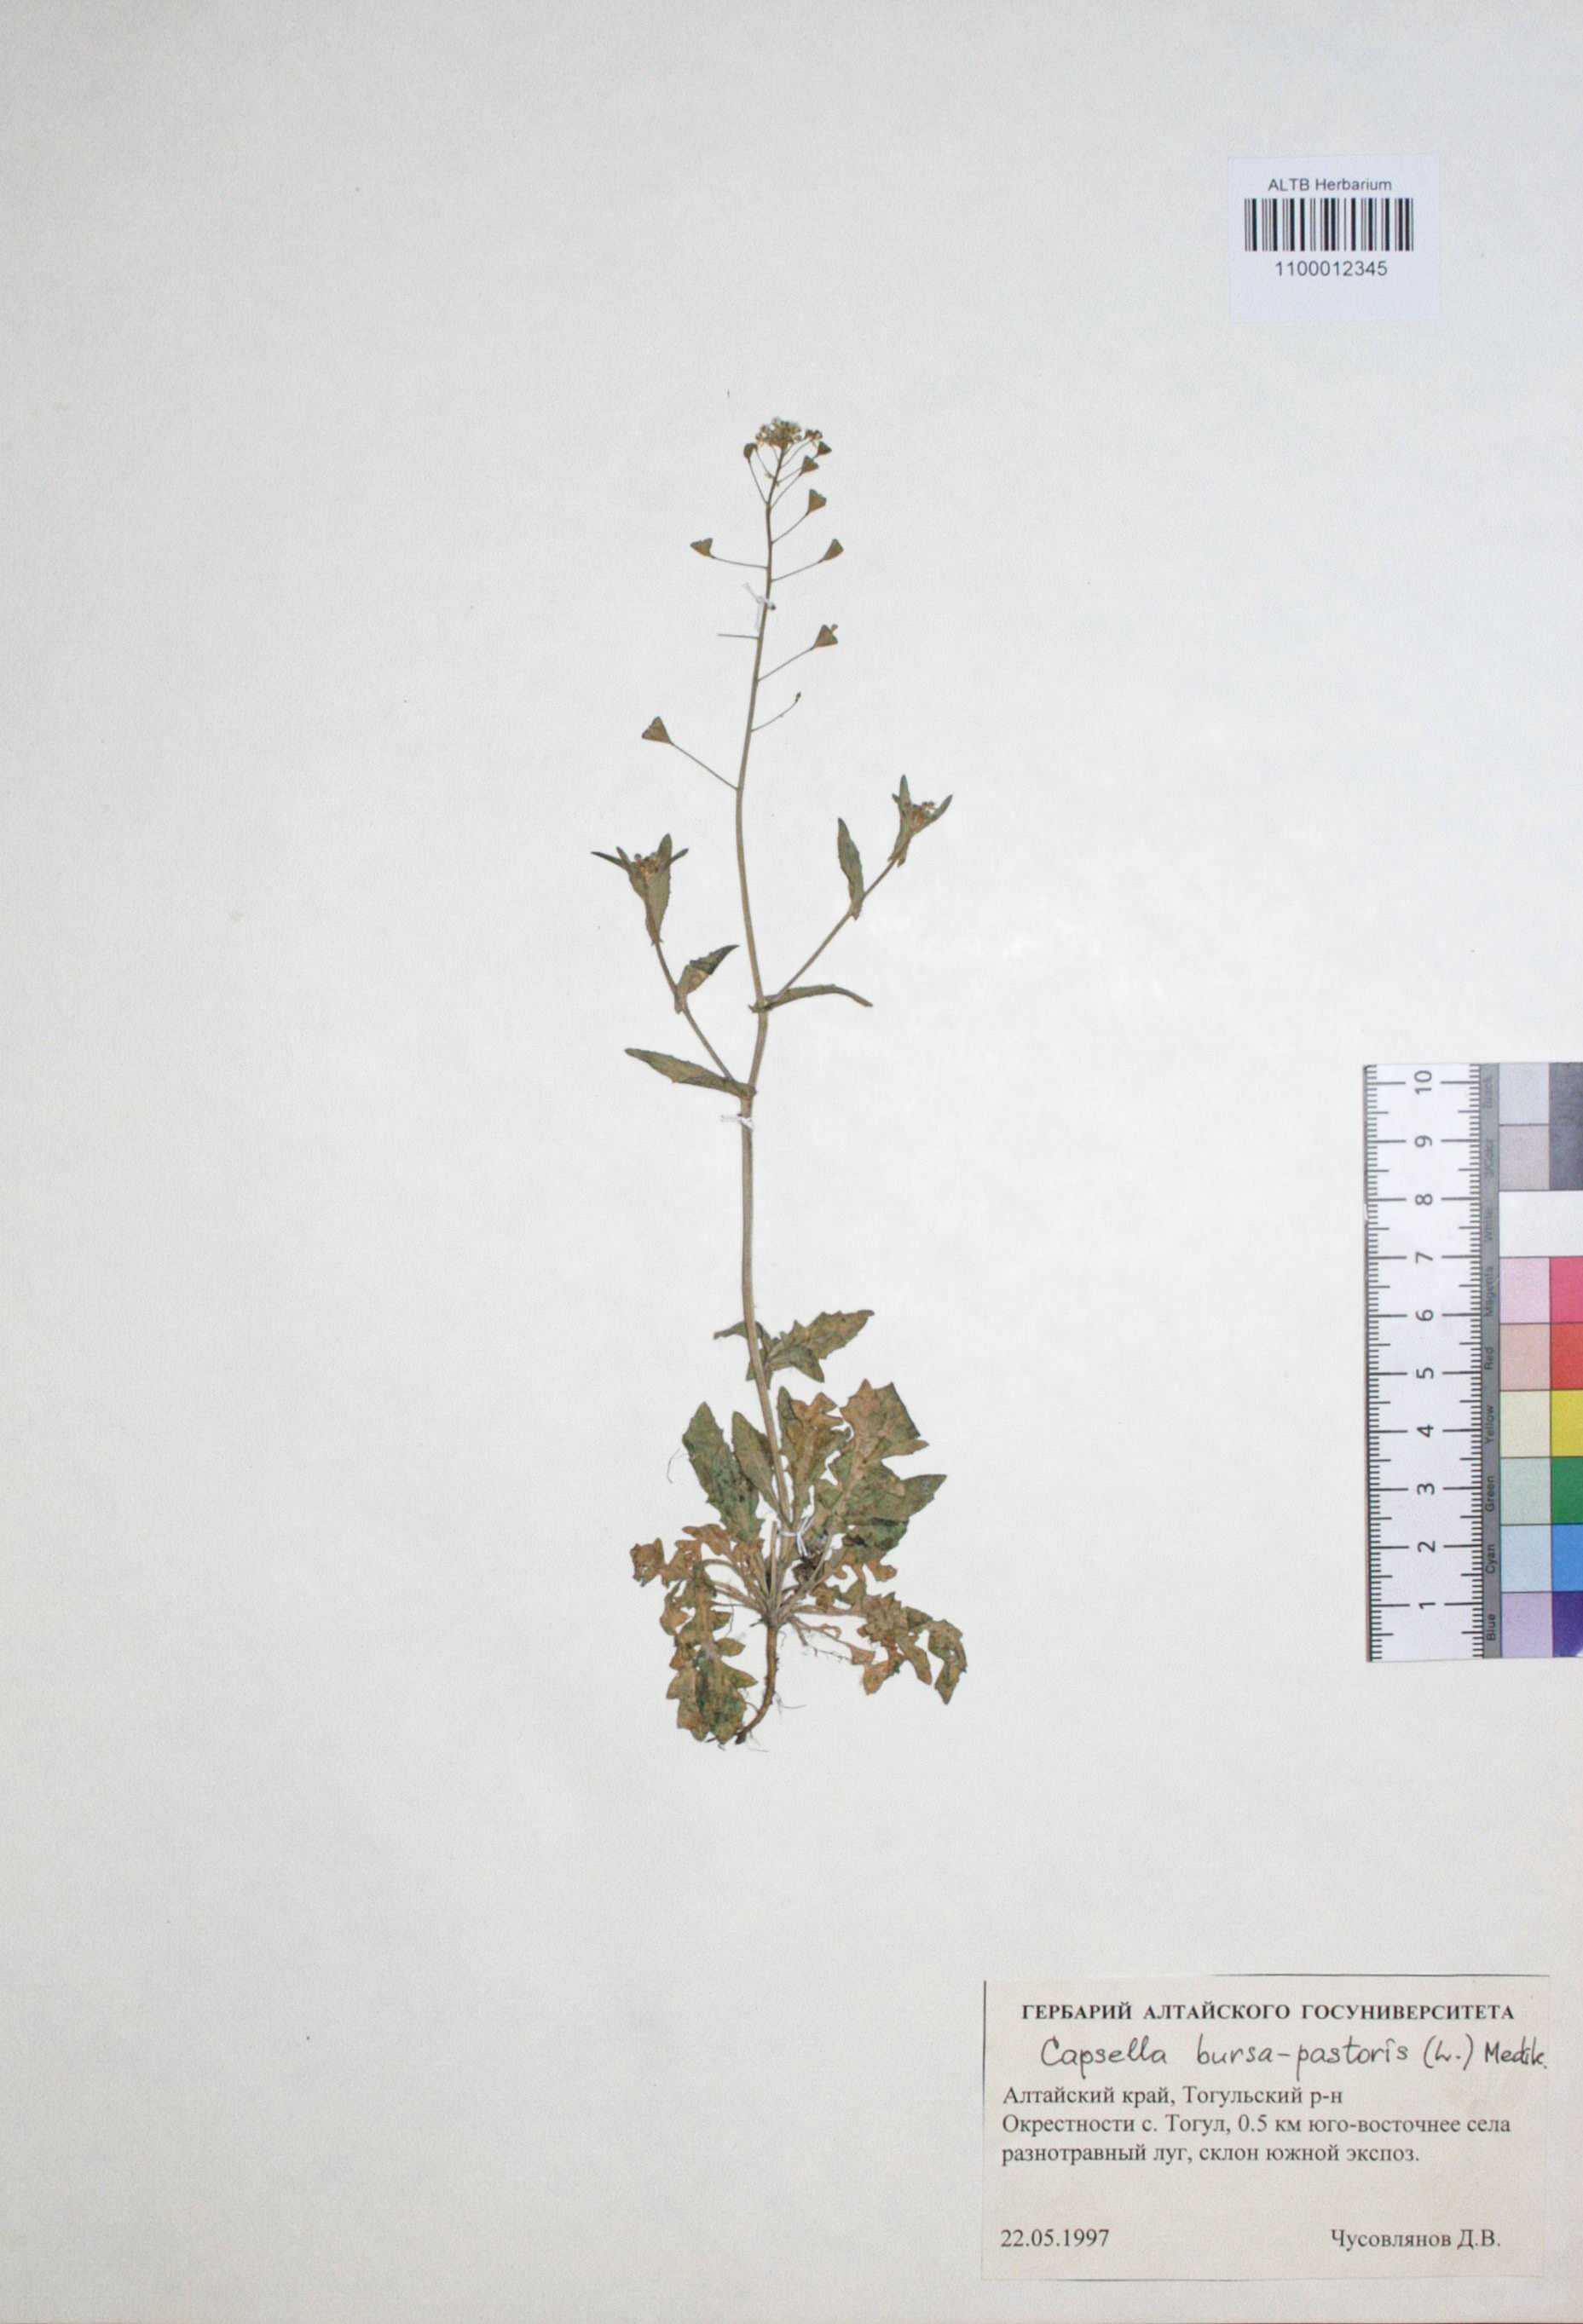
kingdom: Plantae
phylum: Tracheophyta
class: Magnoliopsida
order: Brassicales
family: Brassicaceae
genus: Capsella
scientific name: Capsella bursa-pastoris
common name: Shepherd's purse
